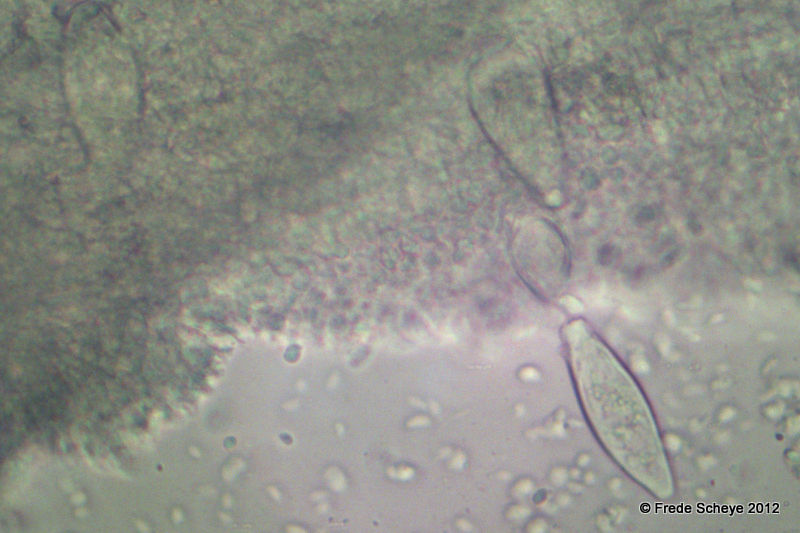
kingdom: Fungi
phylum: Basidiomycota
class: Agaricomycetes
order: Agaricales
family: Physalacriaceae
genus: Strobilurus
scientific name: Strobilurus esculentus
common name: gran-koglehat
